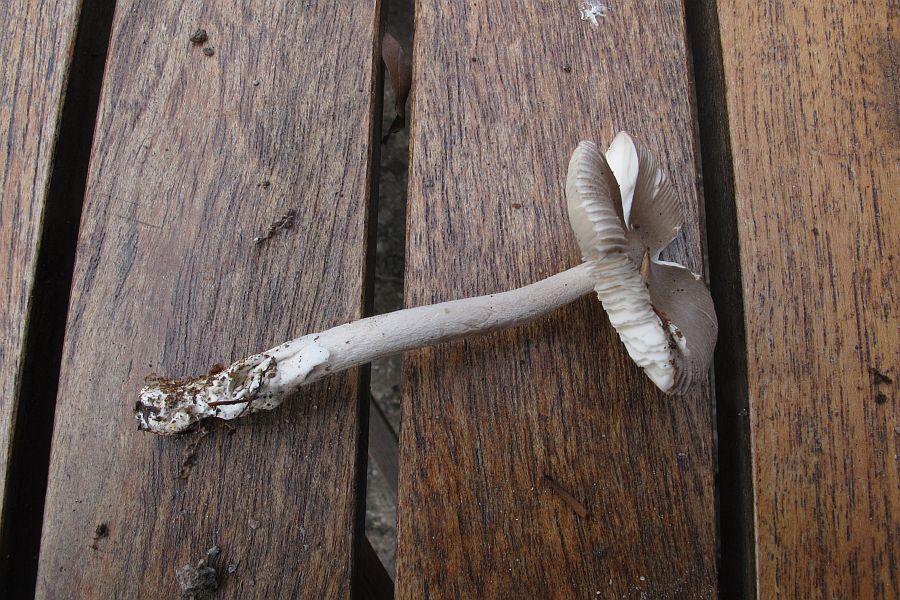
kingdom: Fungi
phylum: Basidiomycota
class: Agaricomycetes
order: Agaricales
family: Amanitaceae
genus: Amanita
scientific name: Amanita vaginata
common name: grå kam-fluesvamp
